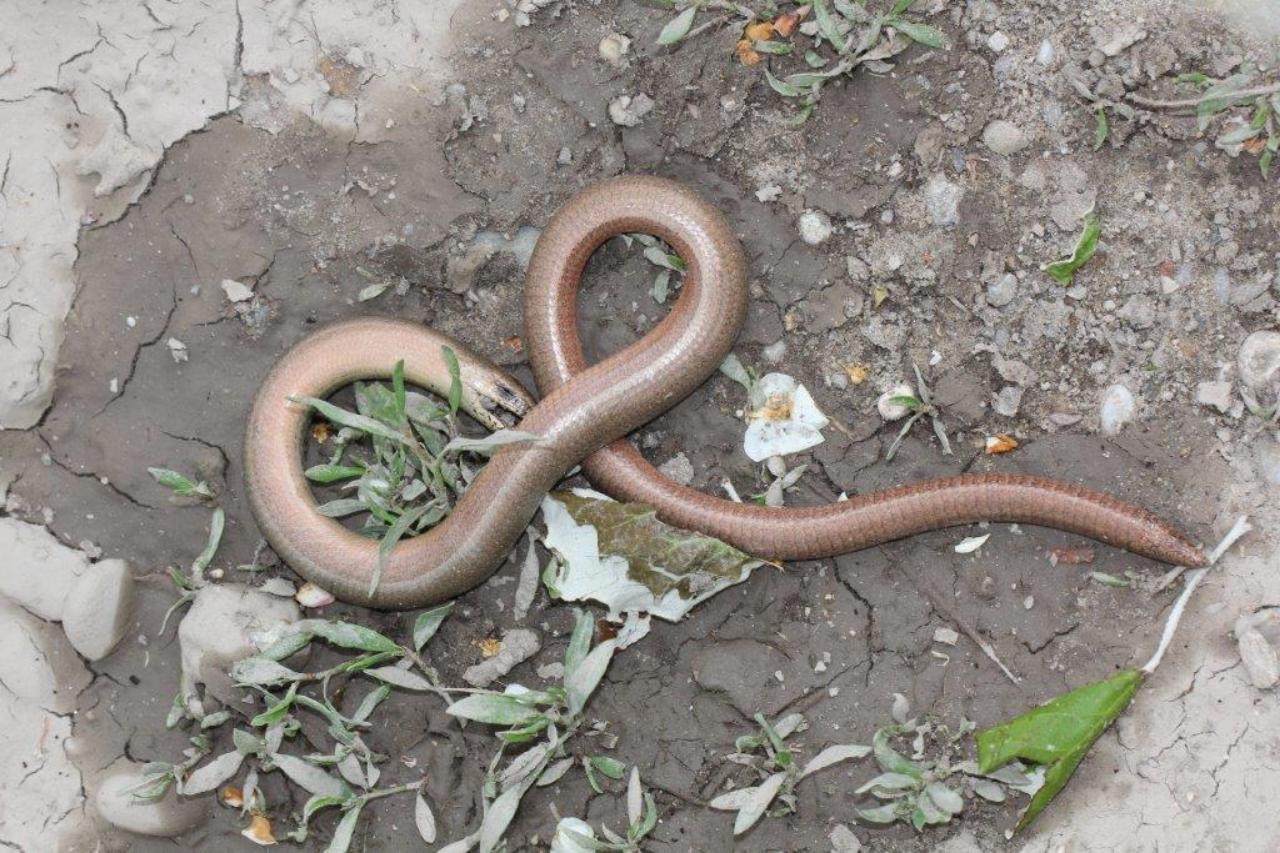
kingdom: Animalia
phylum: Chordata
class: Squamata
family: Anguidae
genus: Anguis
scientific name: Anguis fragilis
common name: Slow worm
